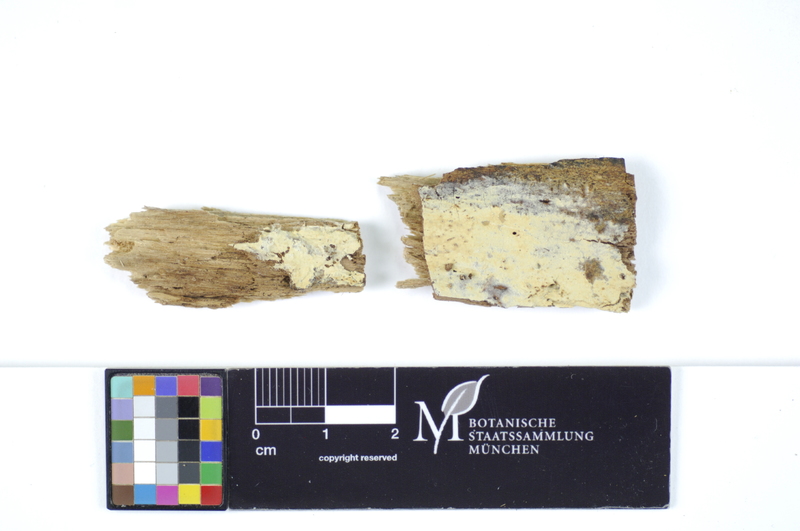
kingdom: Plantae
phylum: Tracheophyta
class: Magnoliopsida
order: Sapindales
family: Sapindaceae
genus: Acer
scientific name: Acer
